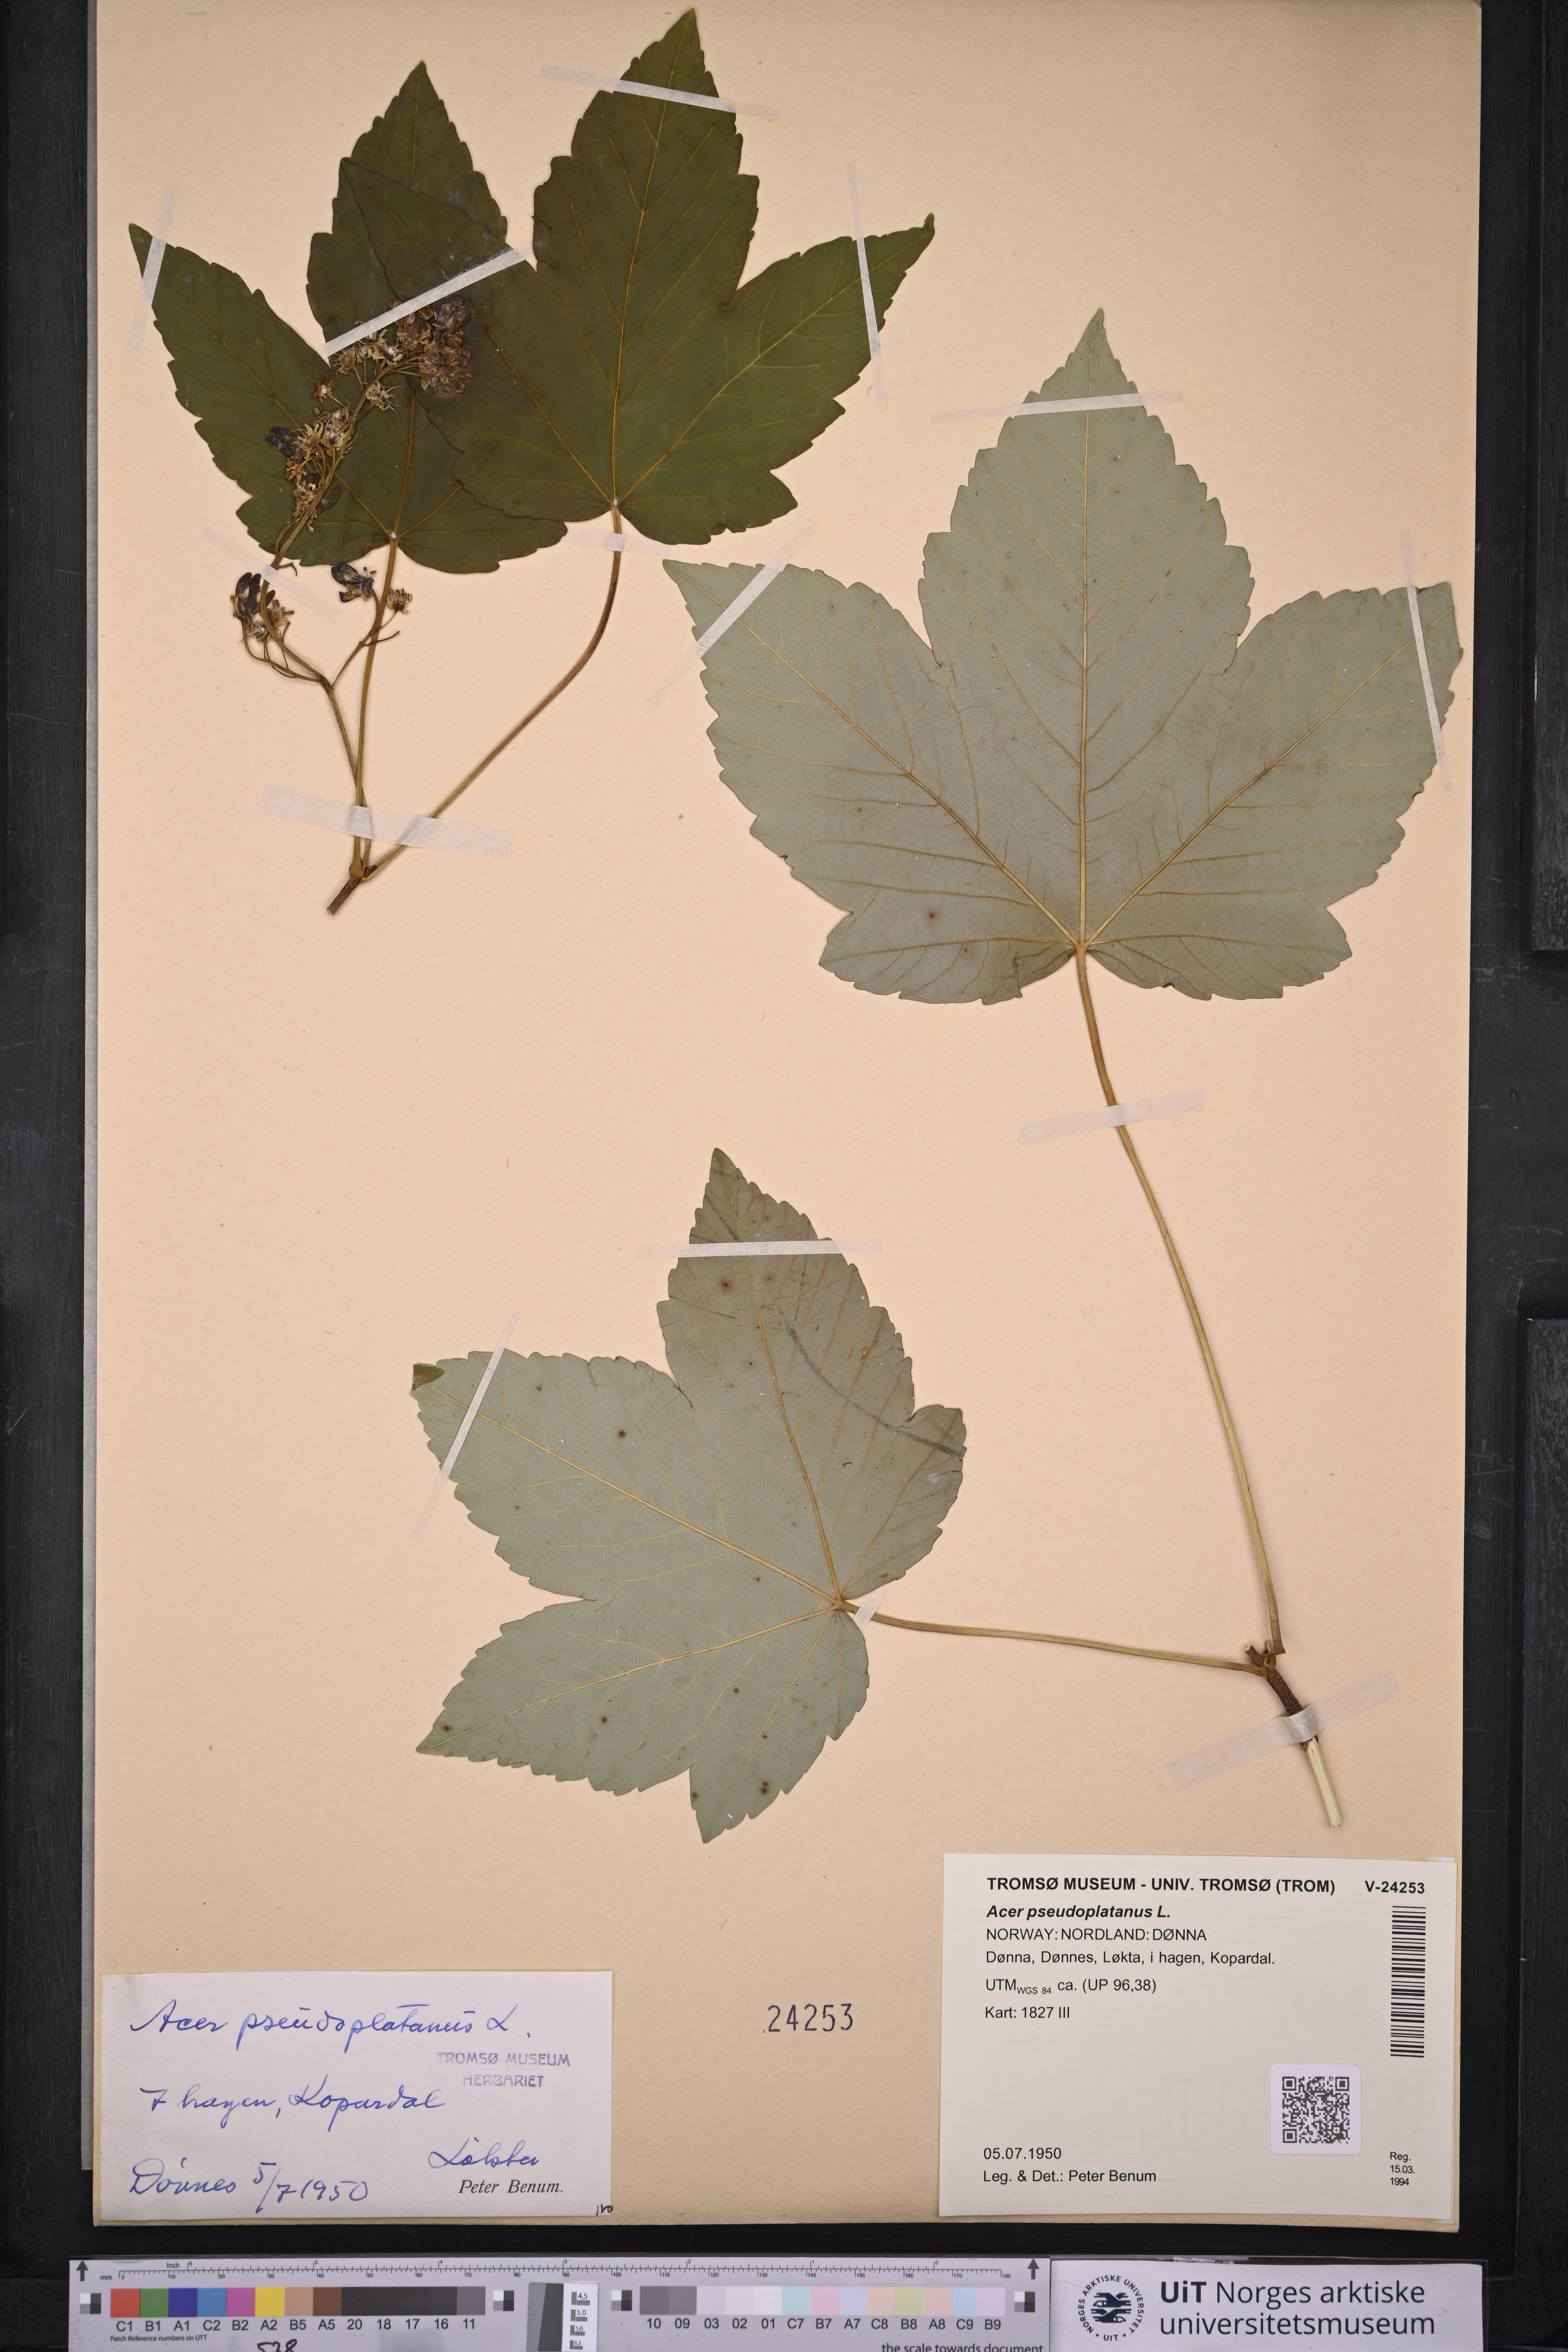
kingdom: Plantae
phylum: Tracheophyta
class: Magnoliopsida
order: Sapindales
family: Sapindaceae
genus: Acer
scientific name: Acer pseudoplatanus
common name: Sycamore
